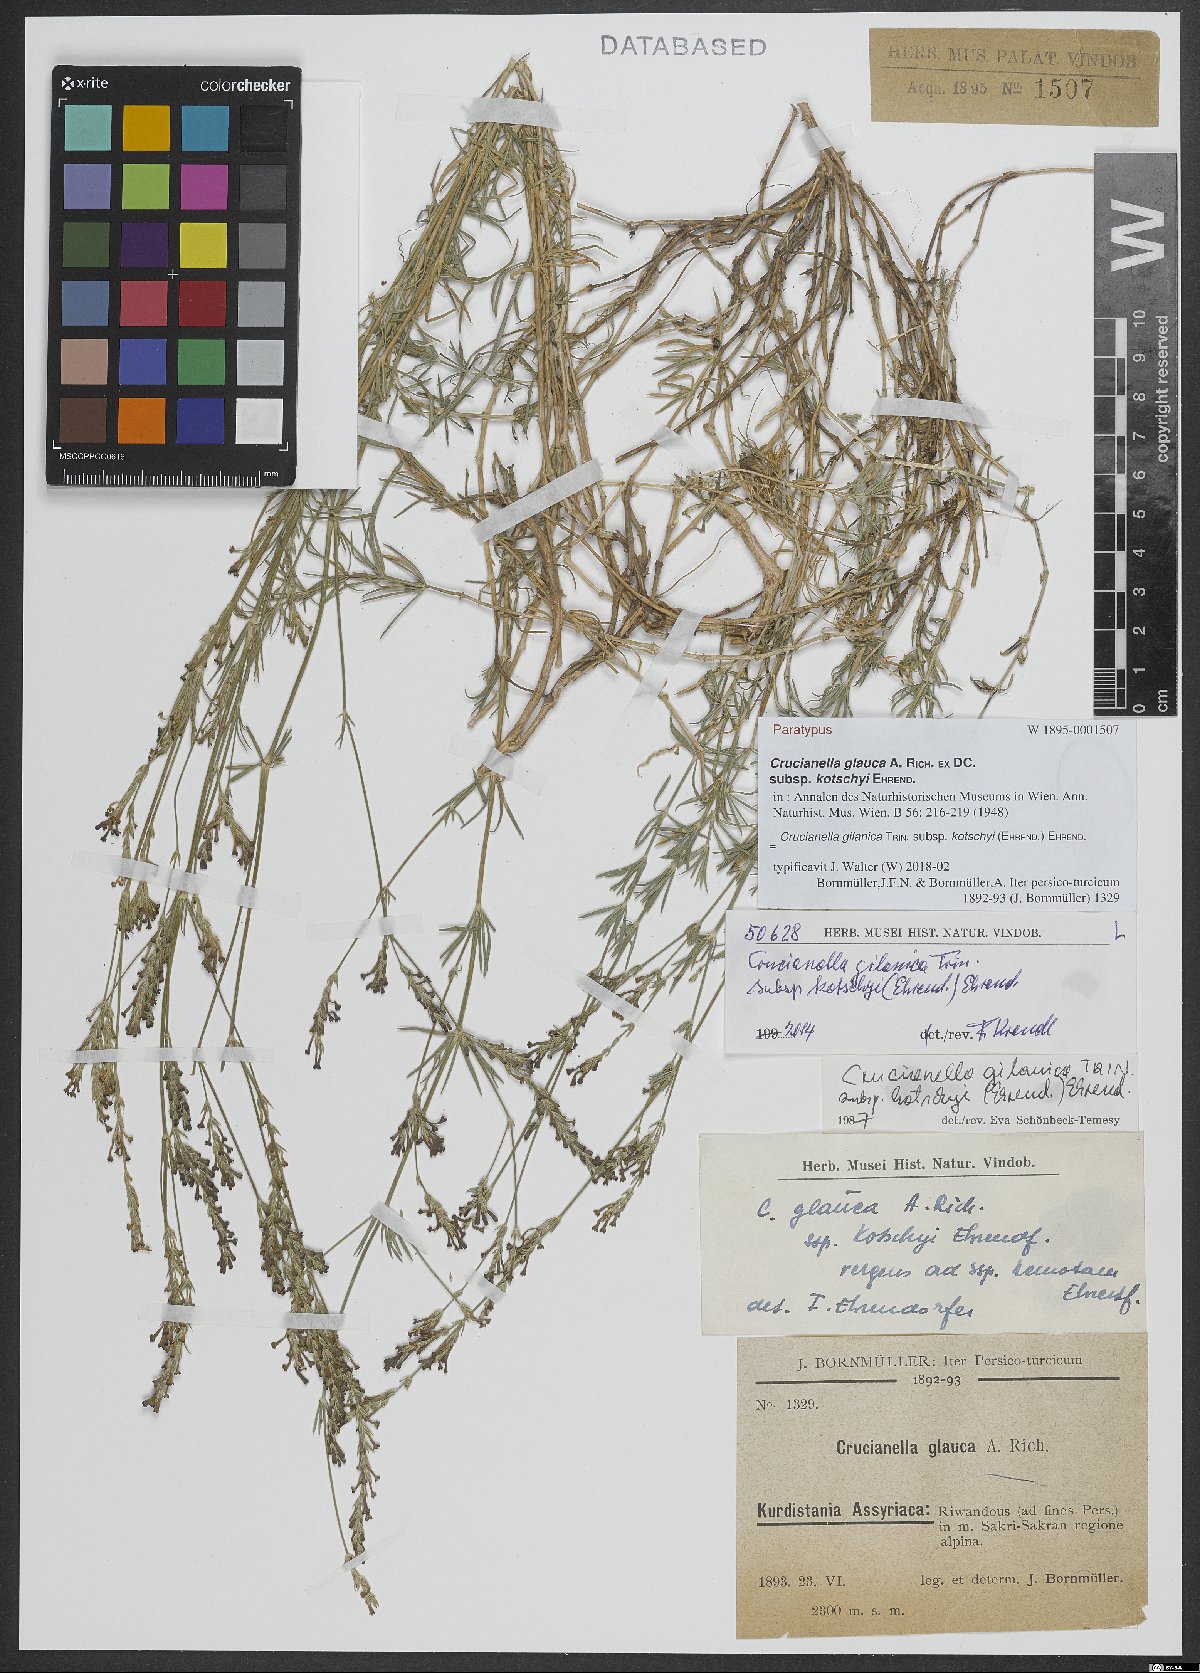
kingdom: Plantae
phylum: Tracheophyta
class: Magnoliopsida
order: Gentianales
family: Rubiaceae
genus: Crucianella
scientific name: Crucianella gilanica
